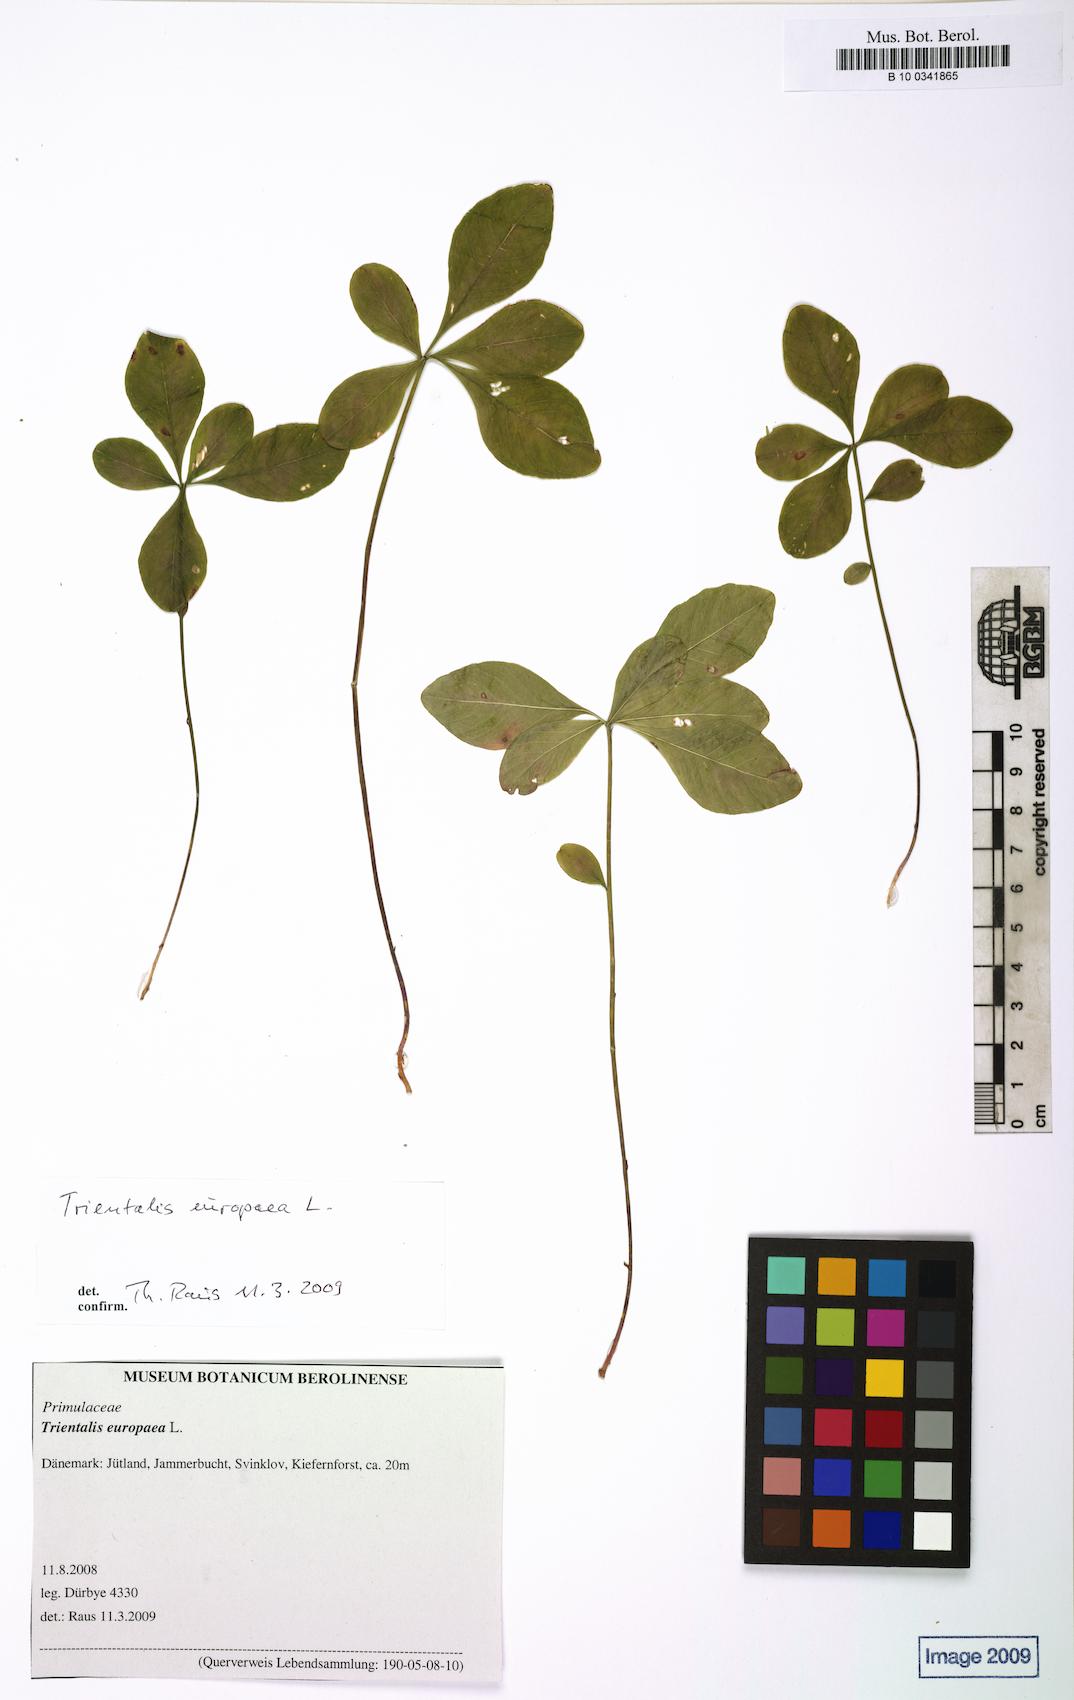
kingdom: Plantae
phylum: Tracheophyta
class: Magnoliopsida
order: Ericales
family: Primulaceae
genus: Lysimachia
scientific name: Lysimachia europaea
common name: Arctic starflower
